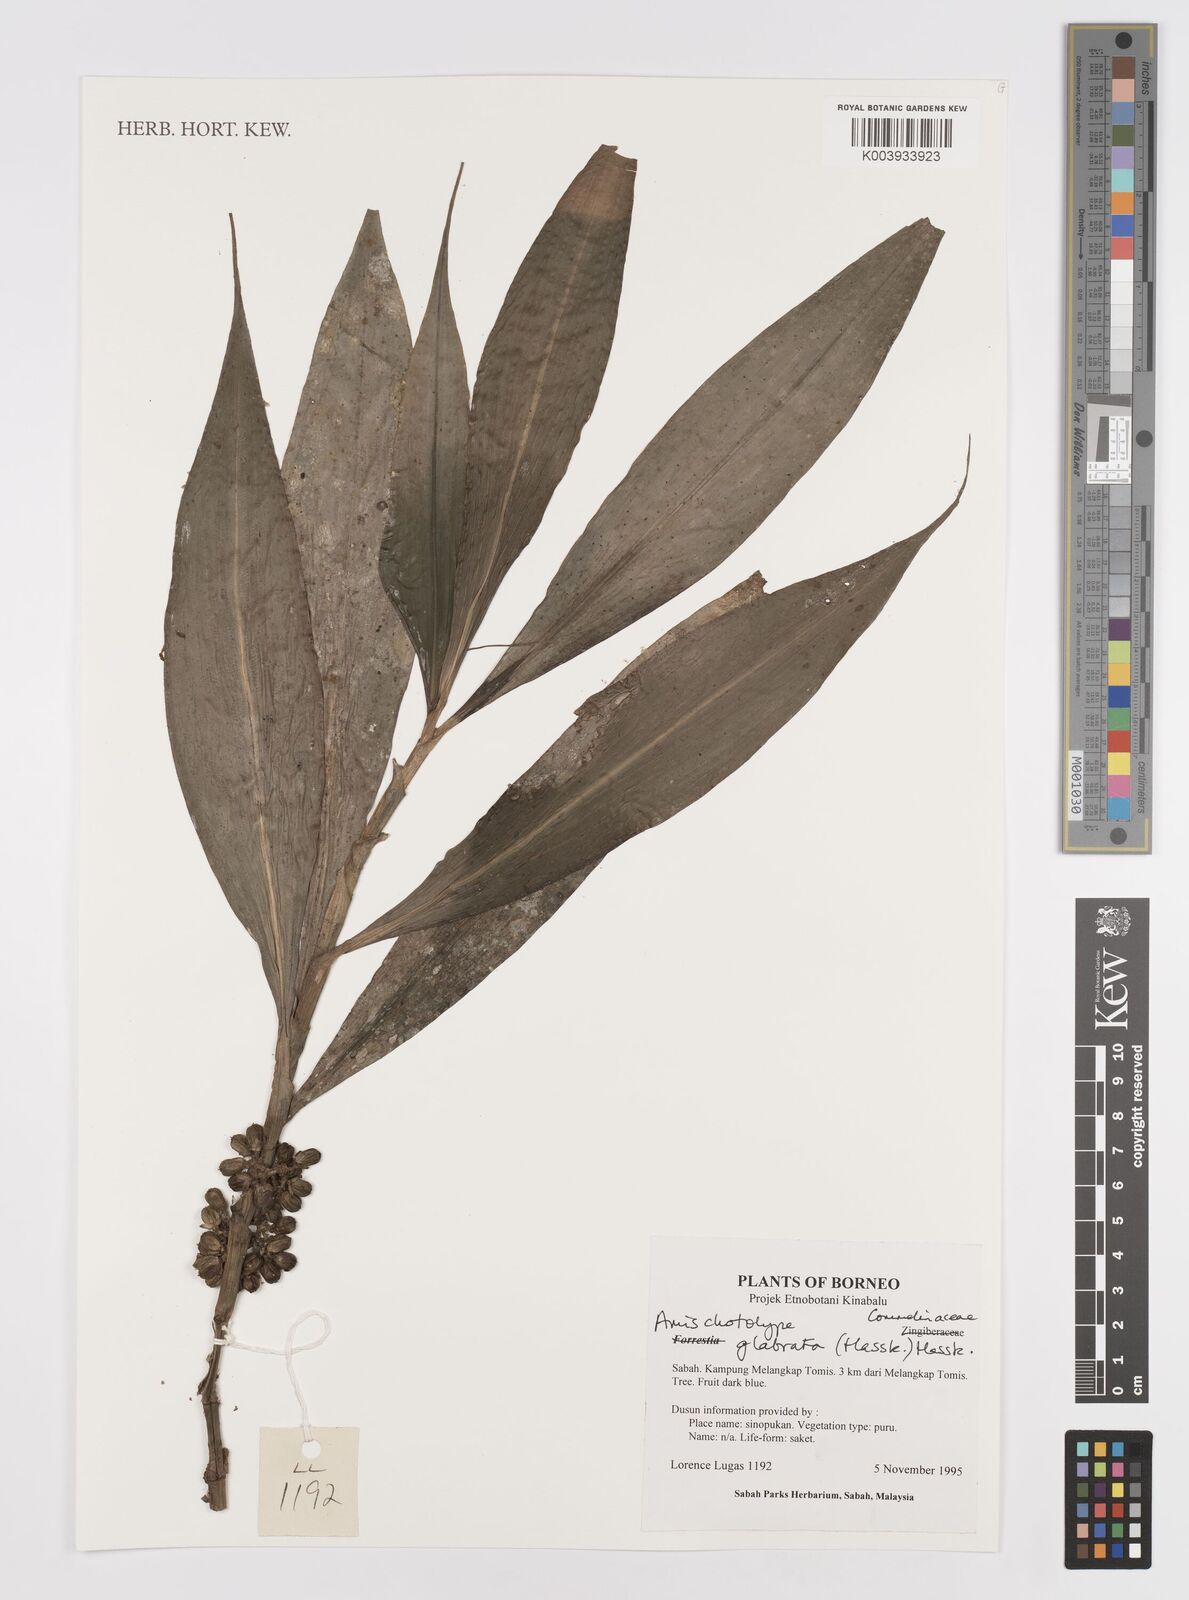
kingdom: Plantae
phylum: Tracheophyta
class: Liliopsida
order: Commelinales
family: Commelinaceae
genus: Amischotolype
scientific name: Amischotolype glabrata
